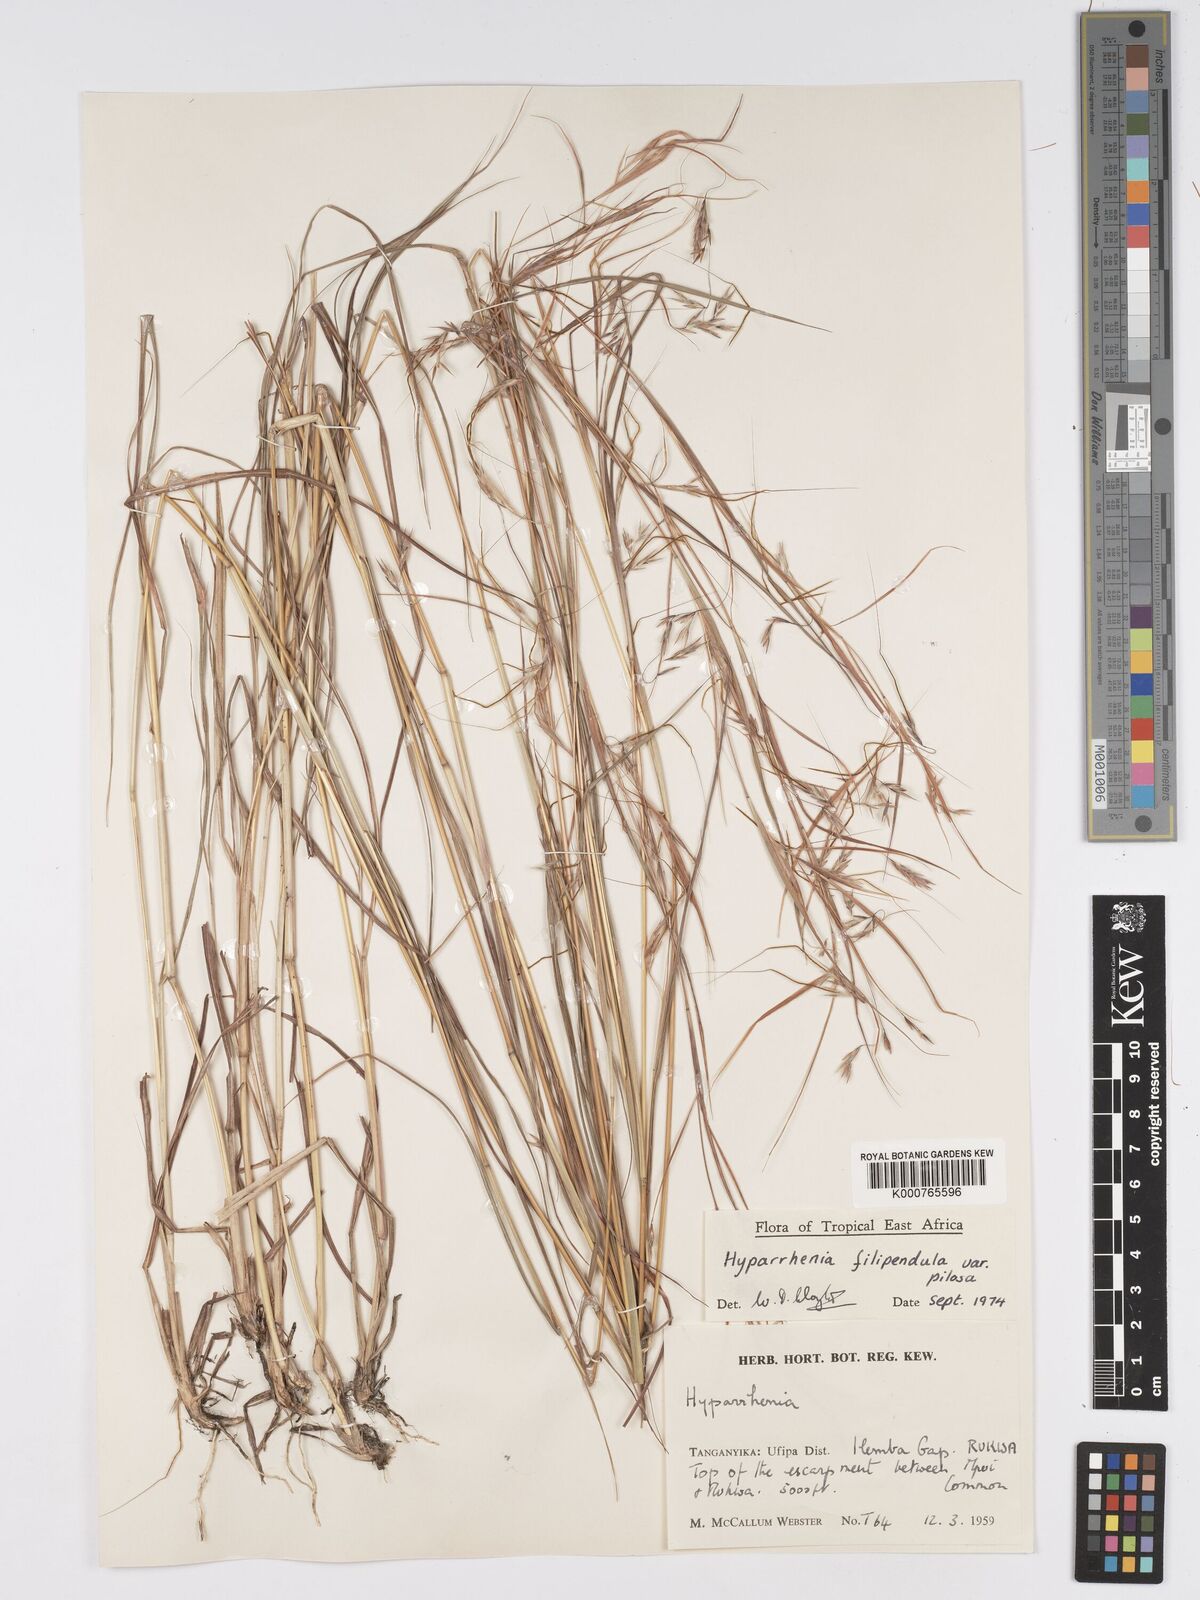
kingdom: Plantae
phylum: Tracheophyta
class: Liliopsida
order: Poales
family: Poaceae
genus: Hyparrhenia
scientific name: Hyparrhenia filipendula
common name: Tambookie grass
